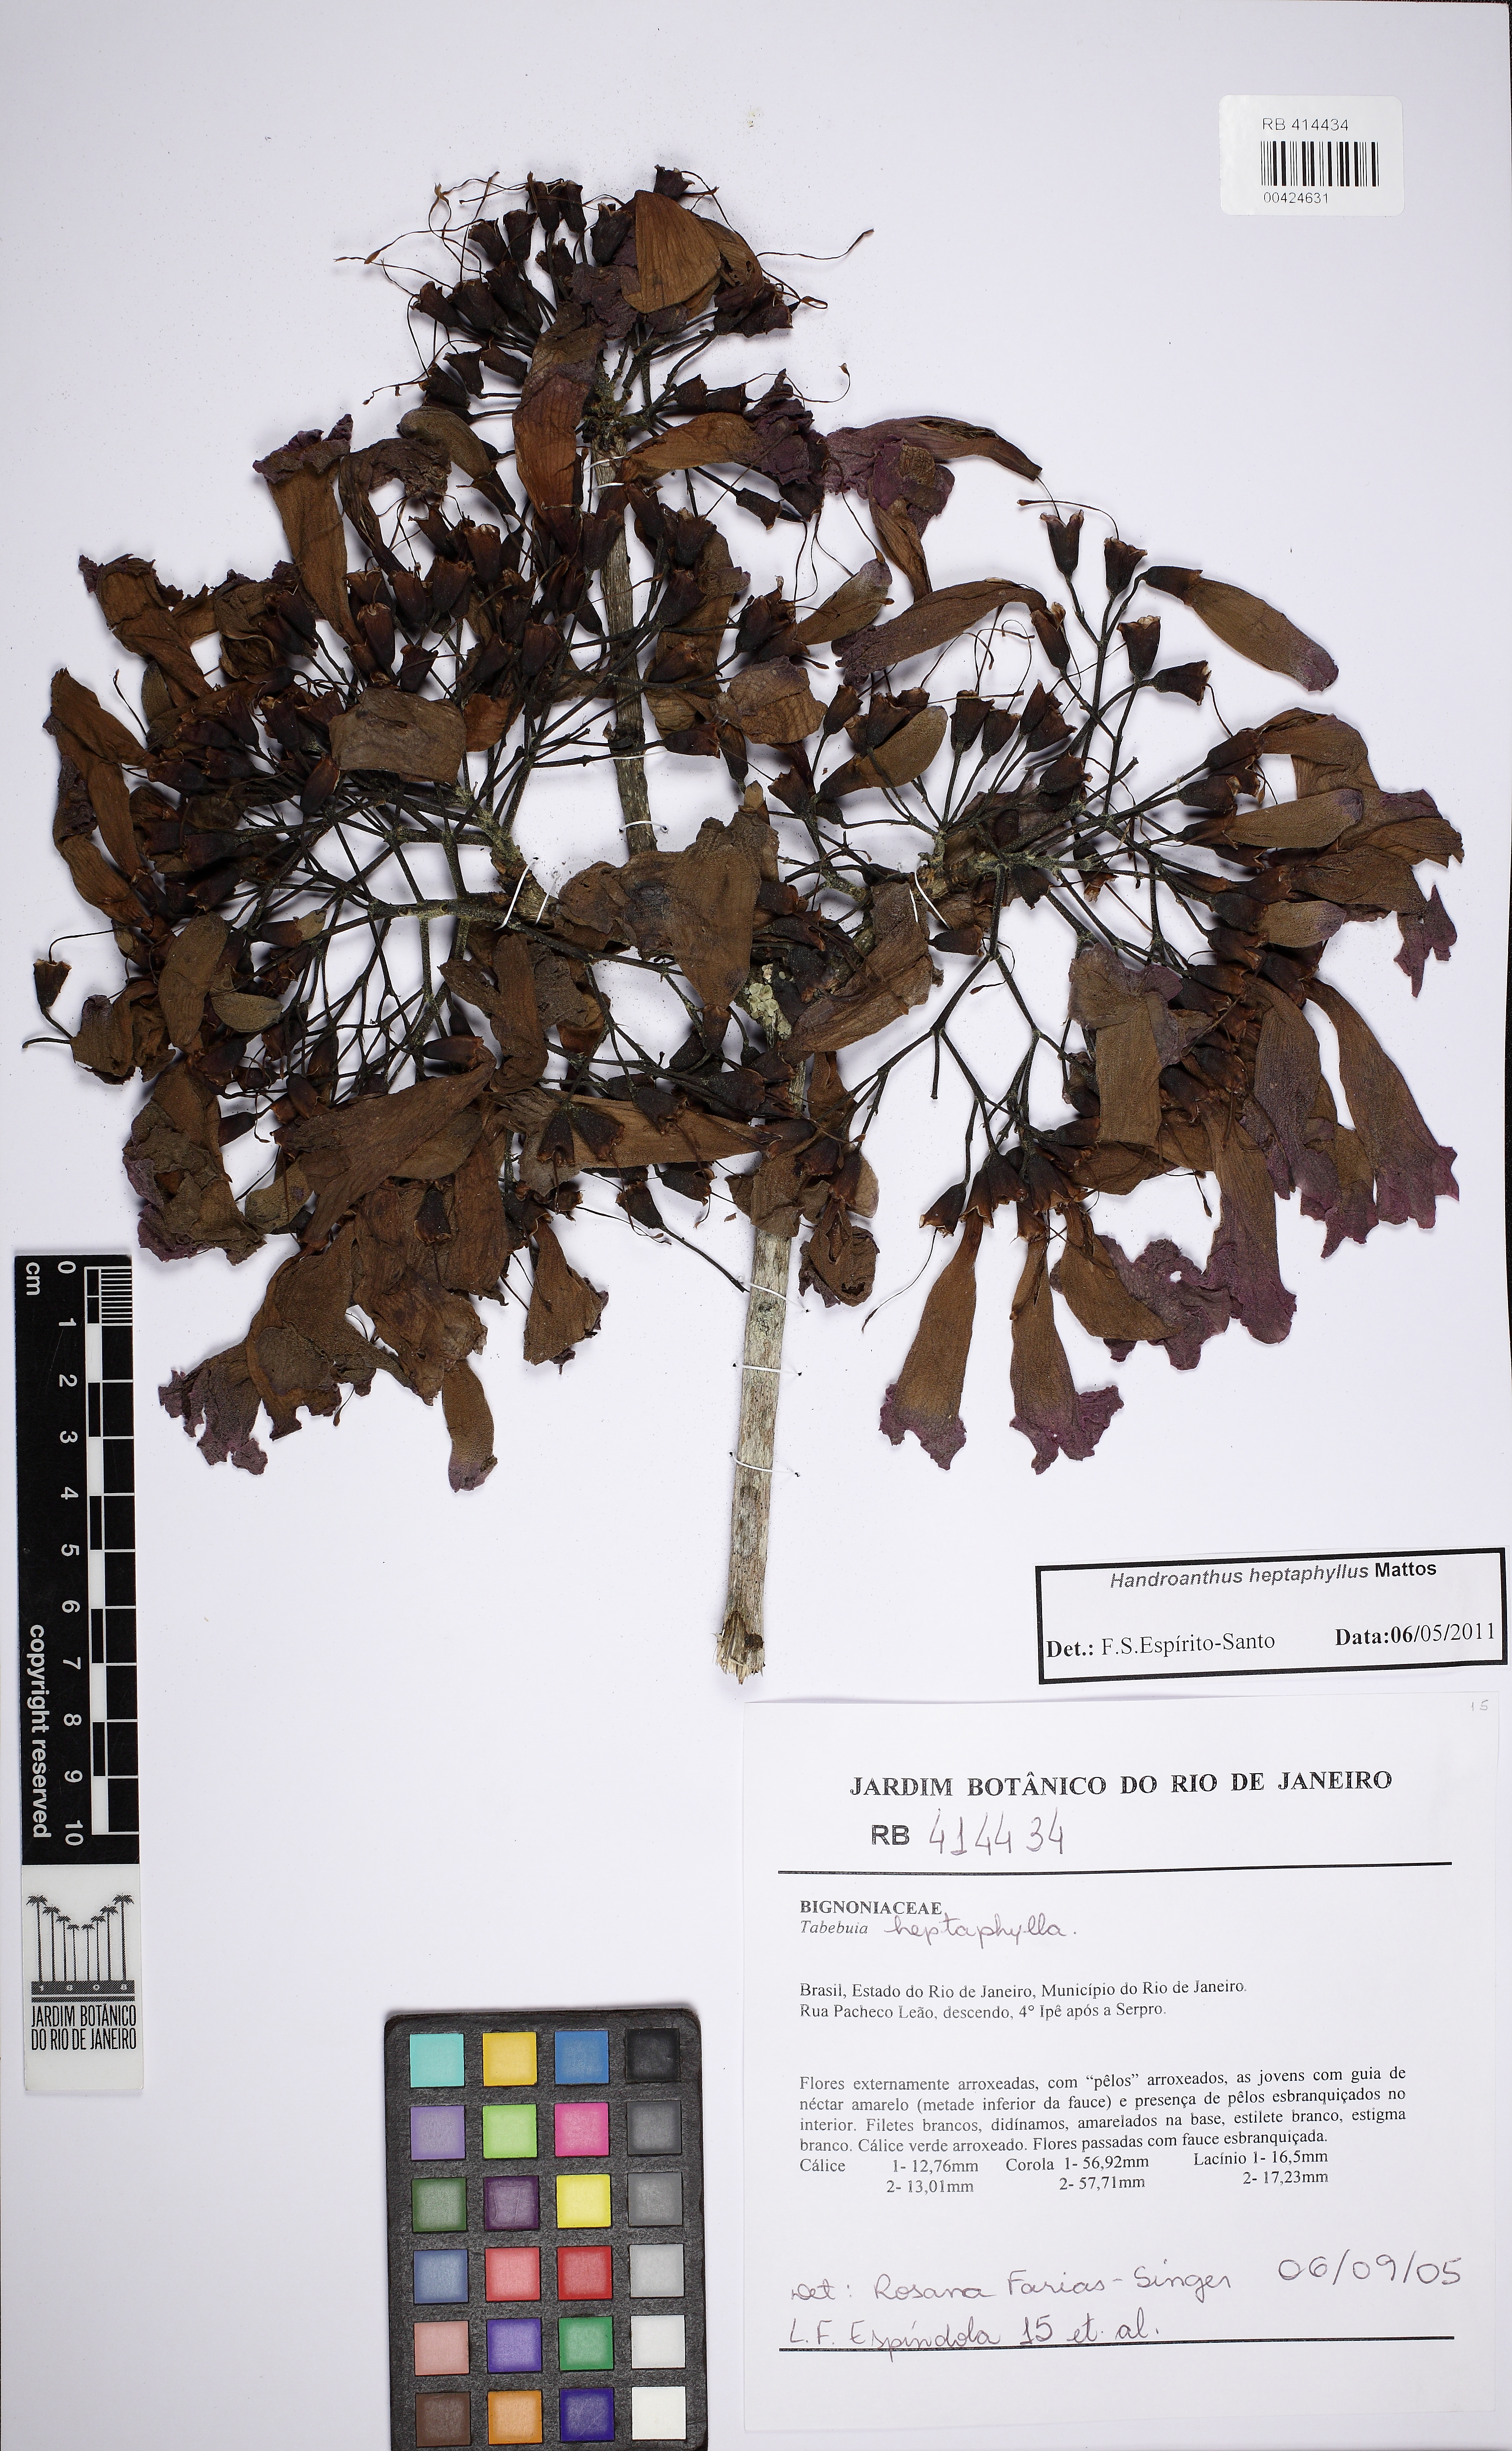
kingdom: Plantae
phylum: Tracheophyta
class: Magnoliopsida
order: Lamiales
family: Bignoniaceae
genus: Handroanthus
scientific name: Handroanthus heptaphyllus
